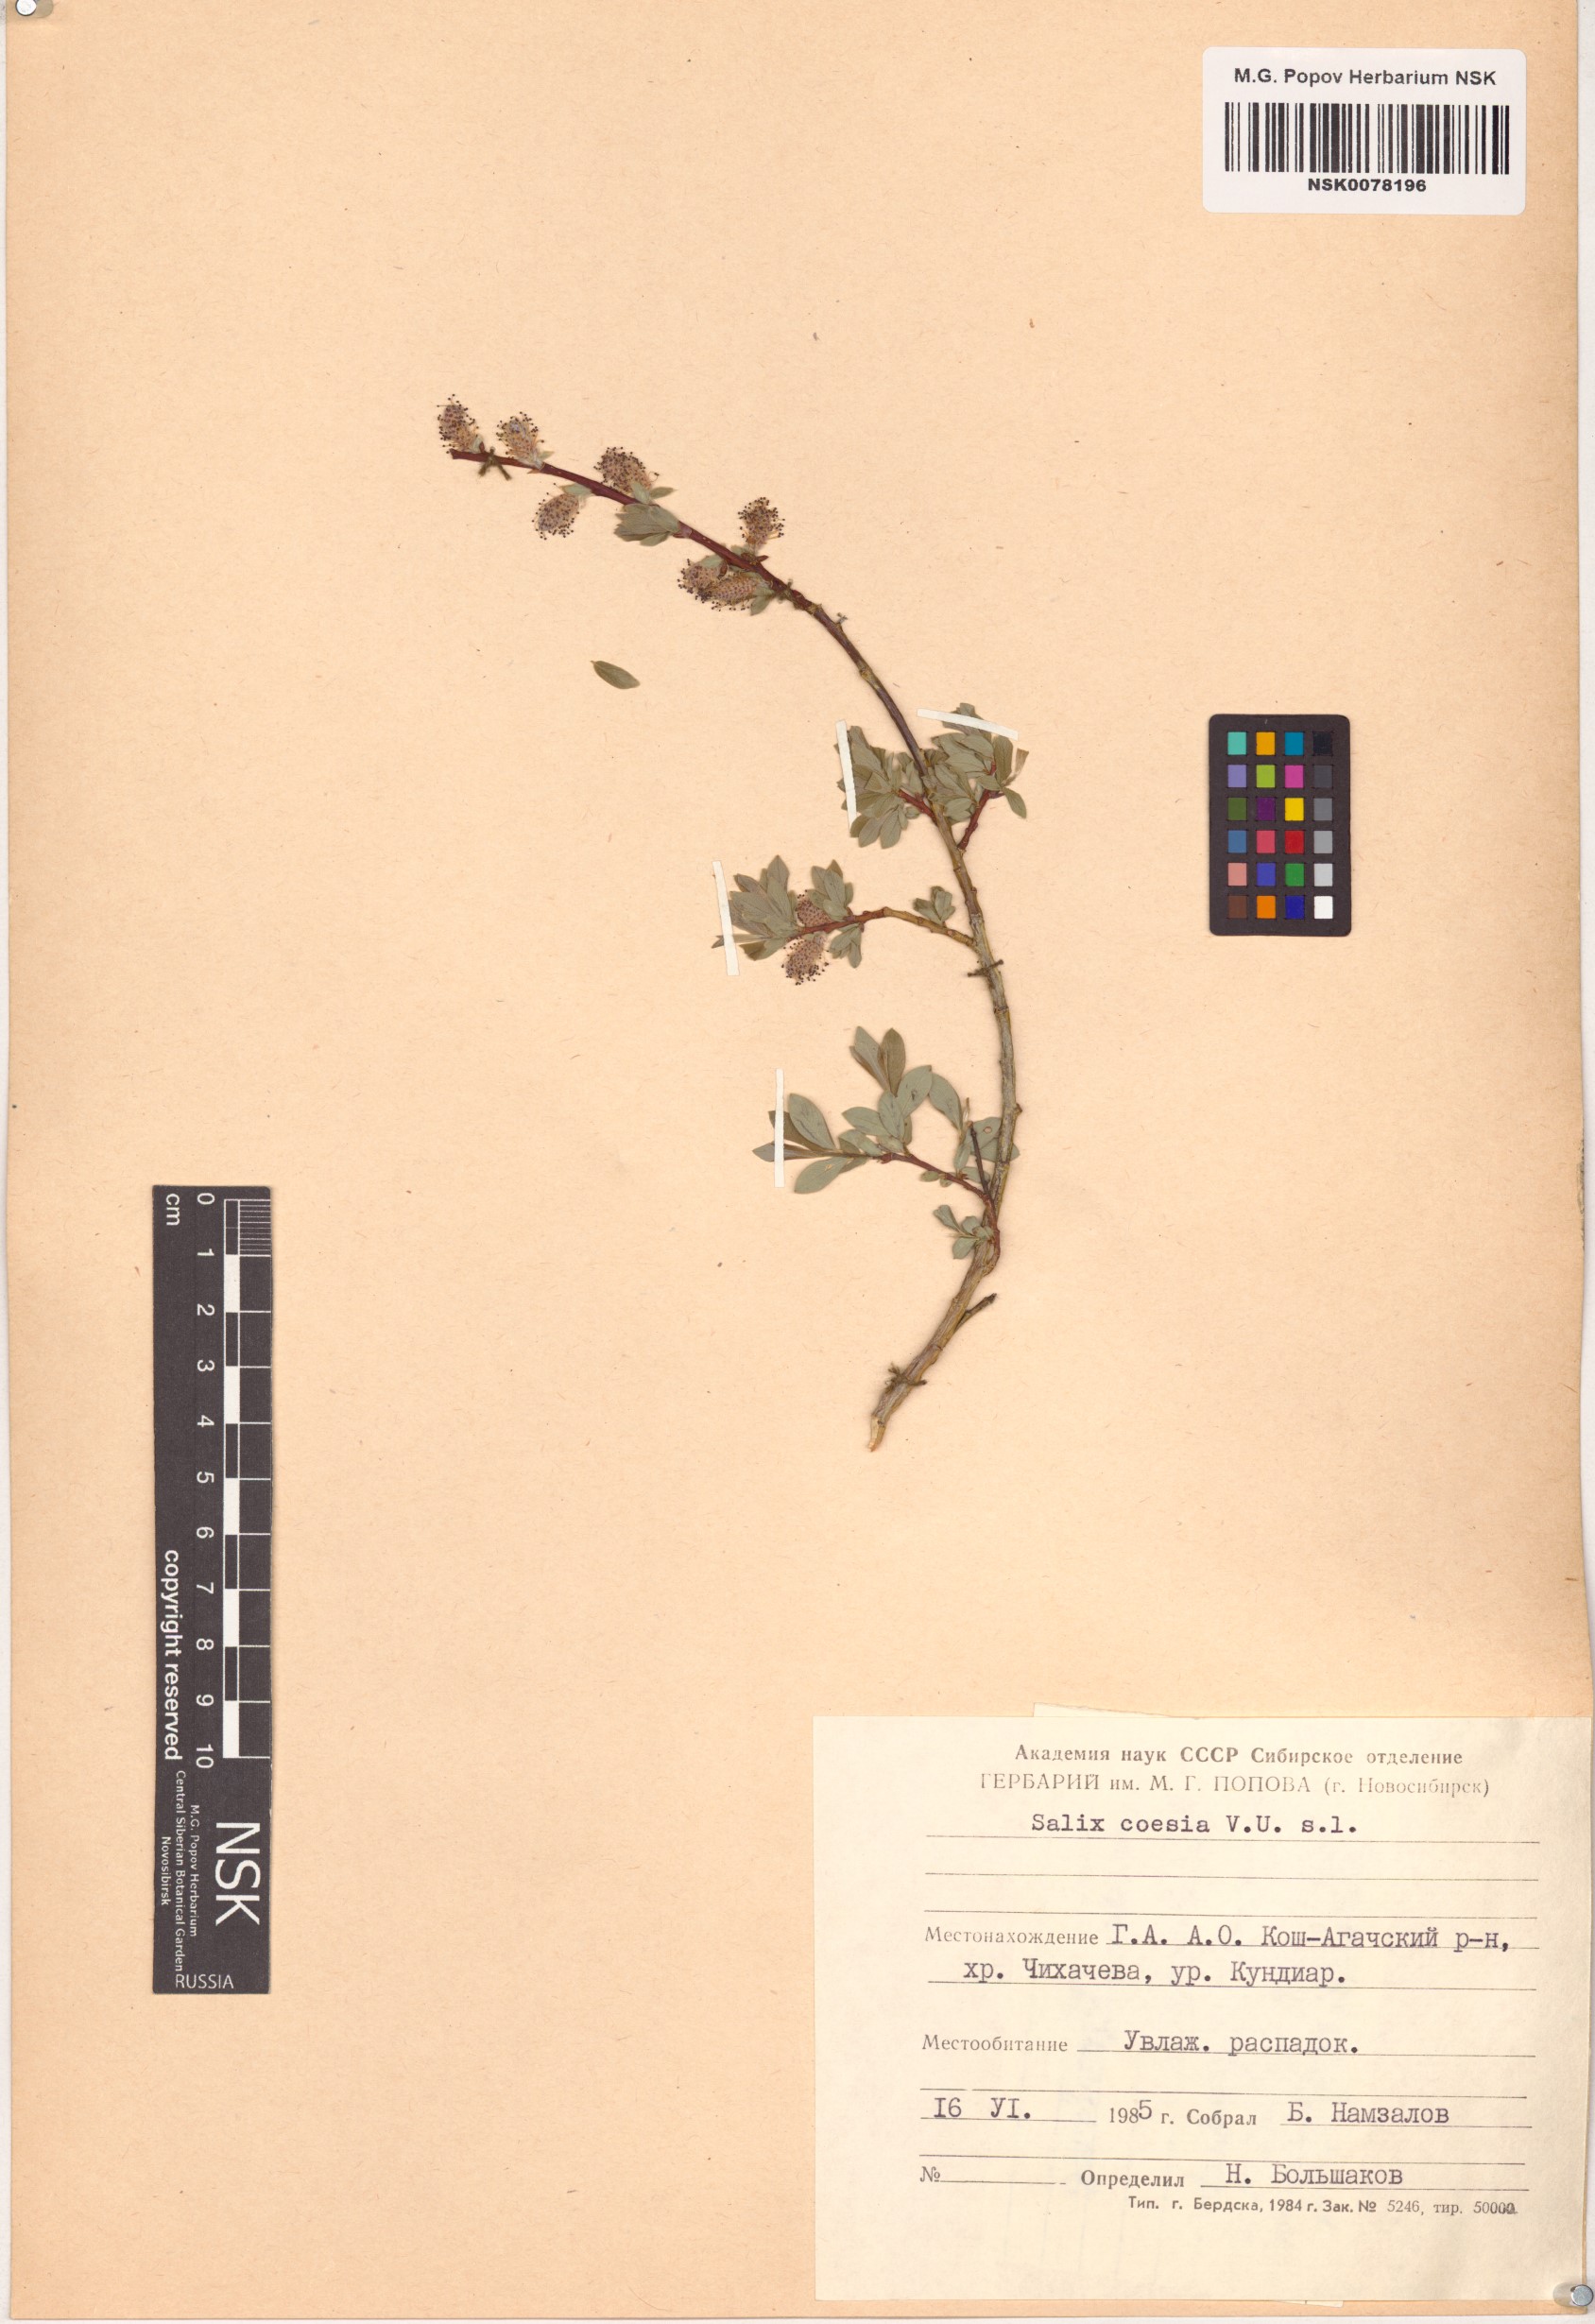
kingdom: Plantae
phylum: Tracheophyta
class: Magnoliopsida
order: Malpighiales
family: Salicaceae
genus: Salix
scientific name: Salix caesia
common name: Blue willow
